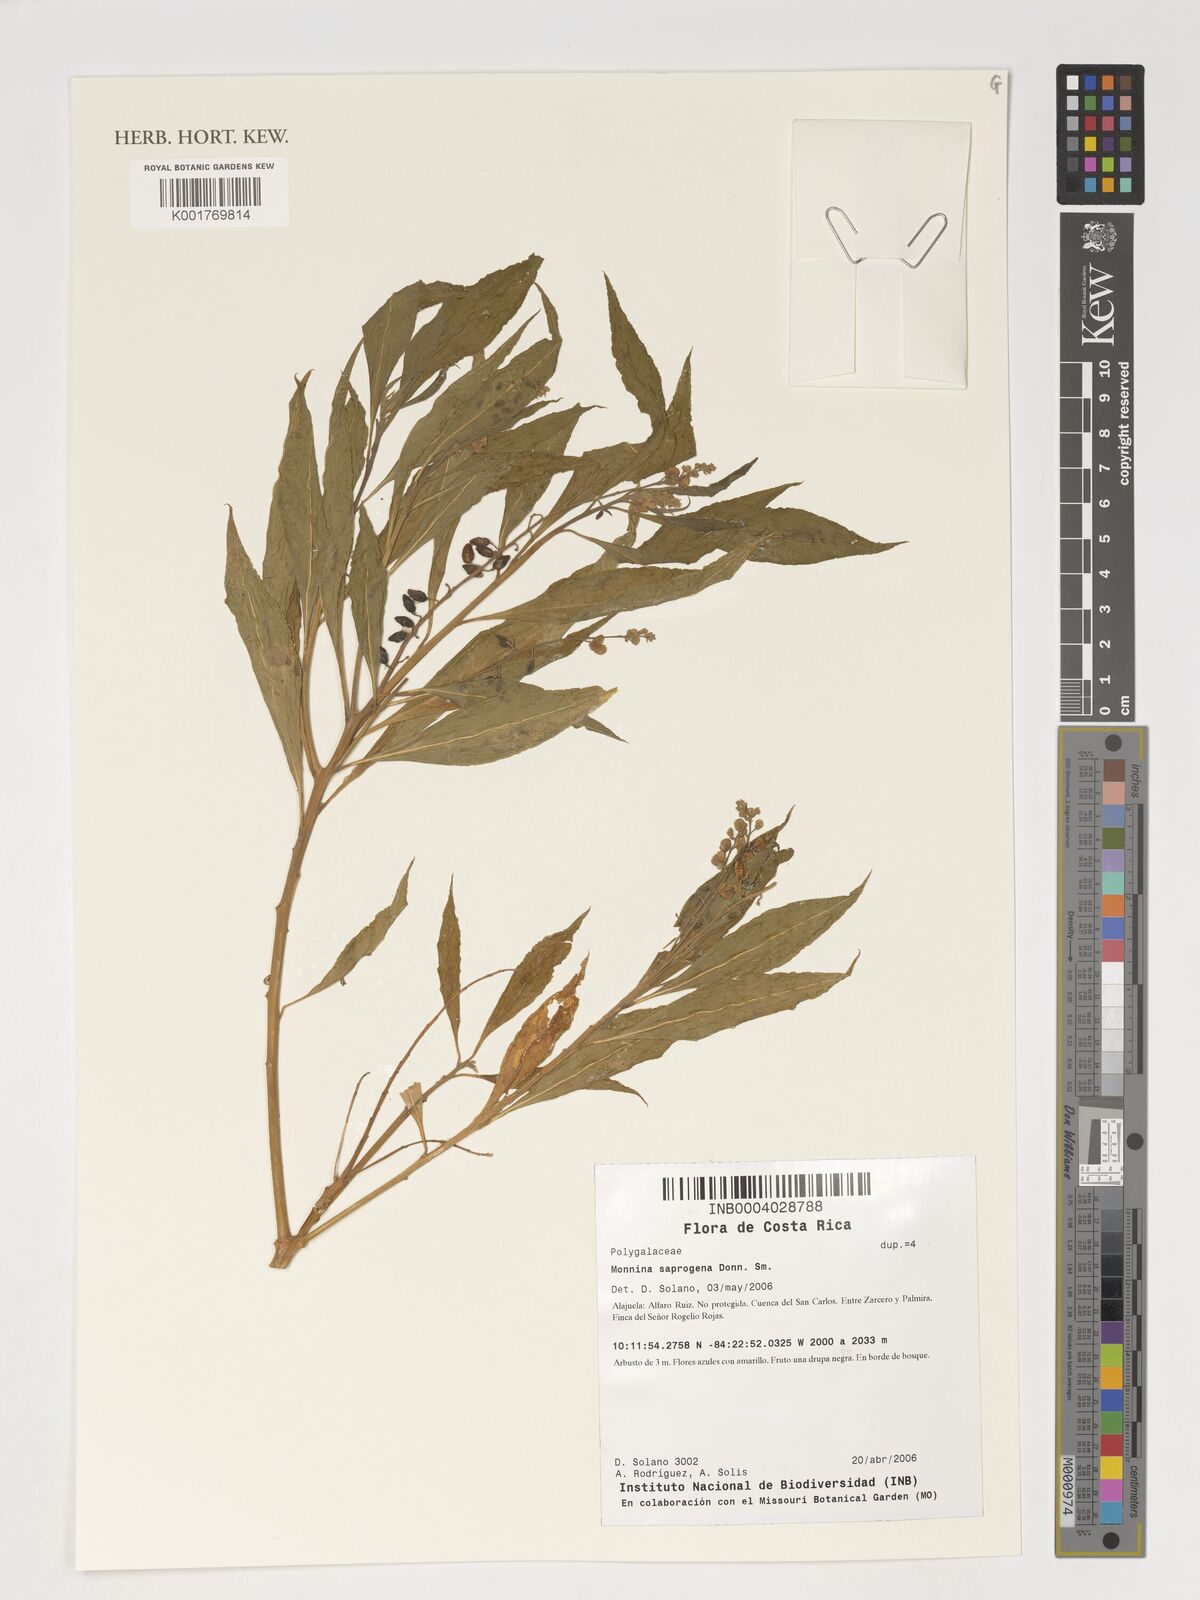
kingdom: Plantae
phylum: Tracheophyta
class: Magnoliopsida
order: Fabales
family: Polygalaceae
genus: Monnina
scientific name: Monnina saprogena
